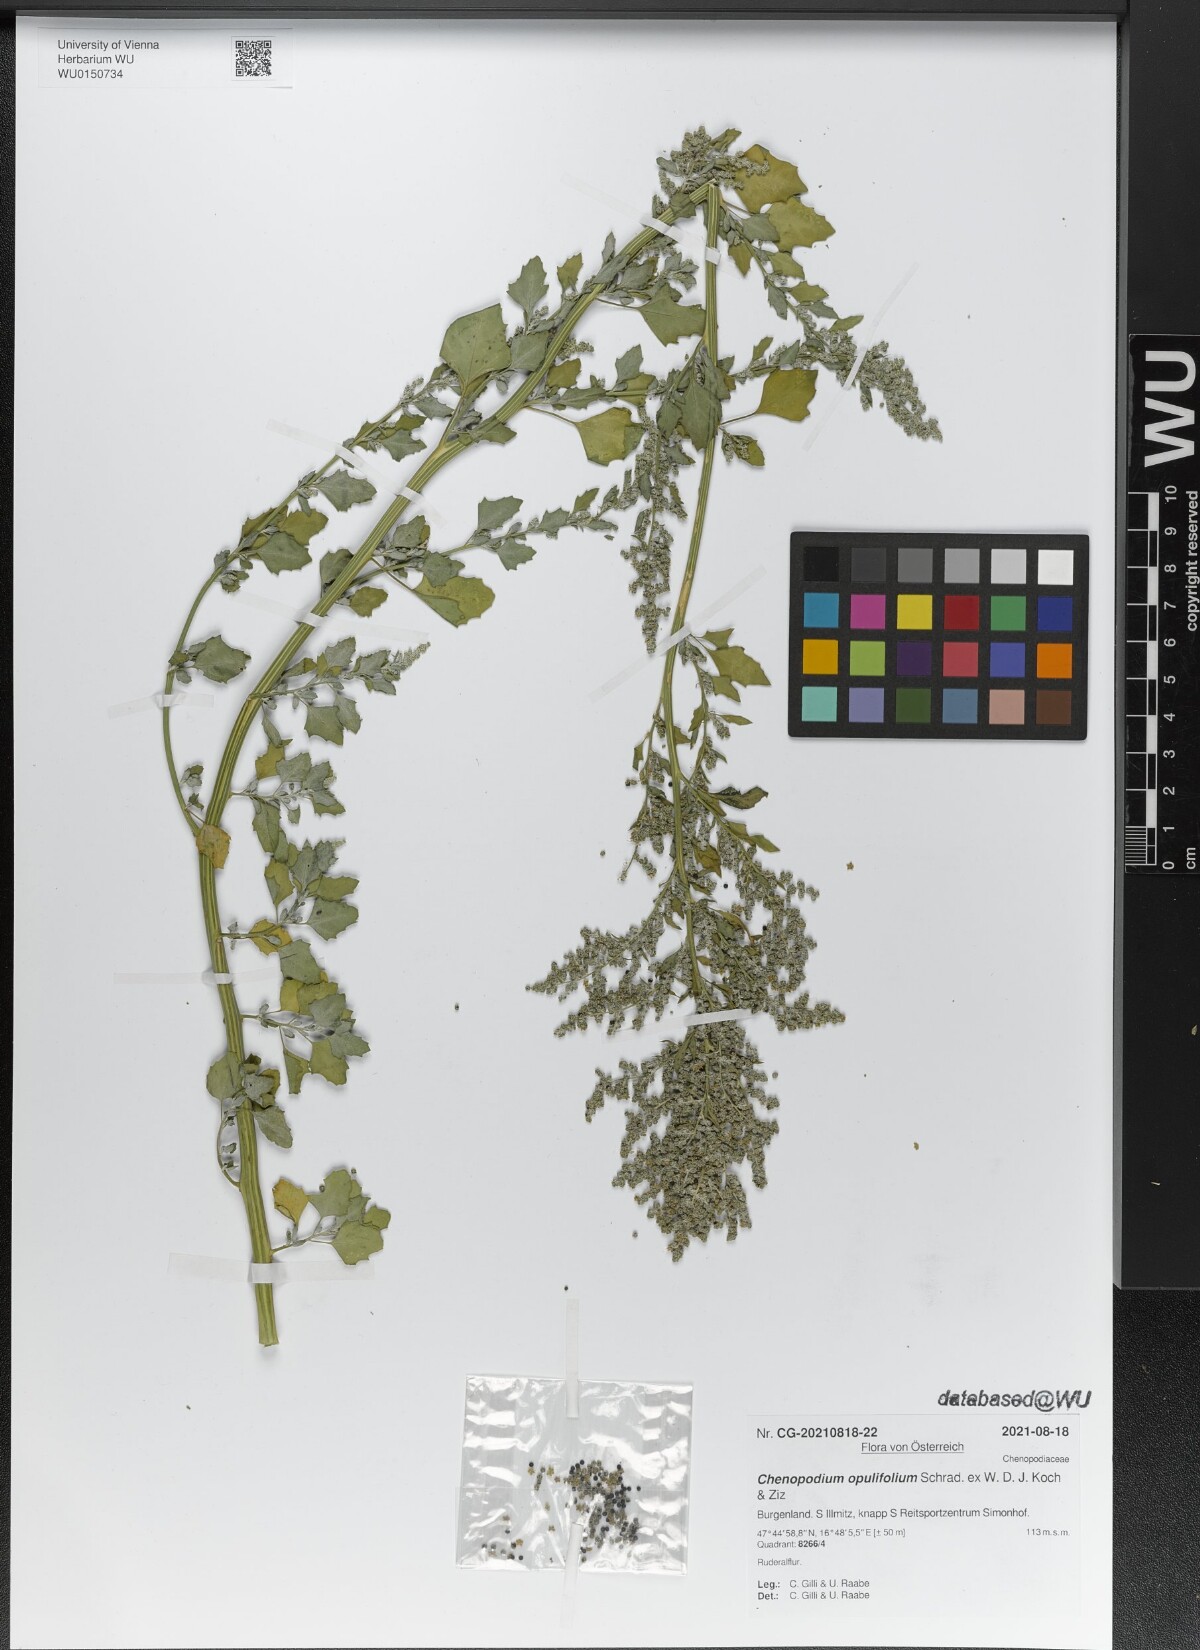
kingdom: Plantae
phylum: Tracheophyta
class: Magnoliopsida
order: Caryophyllales
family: Amaranthaceae
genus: Chenopodium
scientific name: Chenopodium opulifolium
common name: Grey goosefoot
